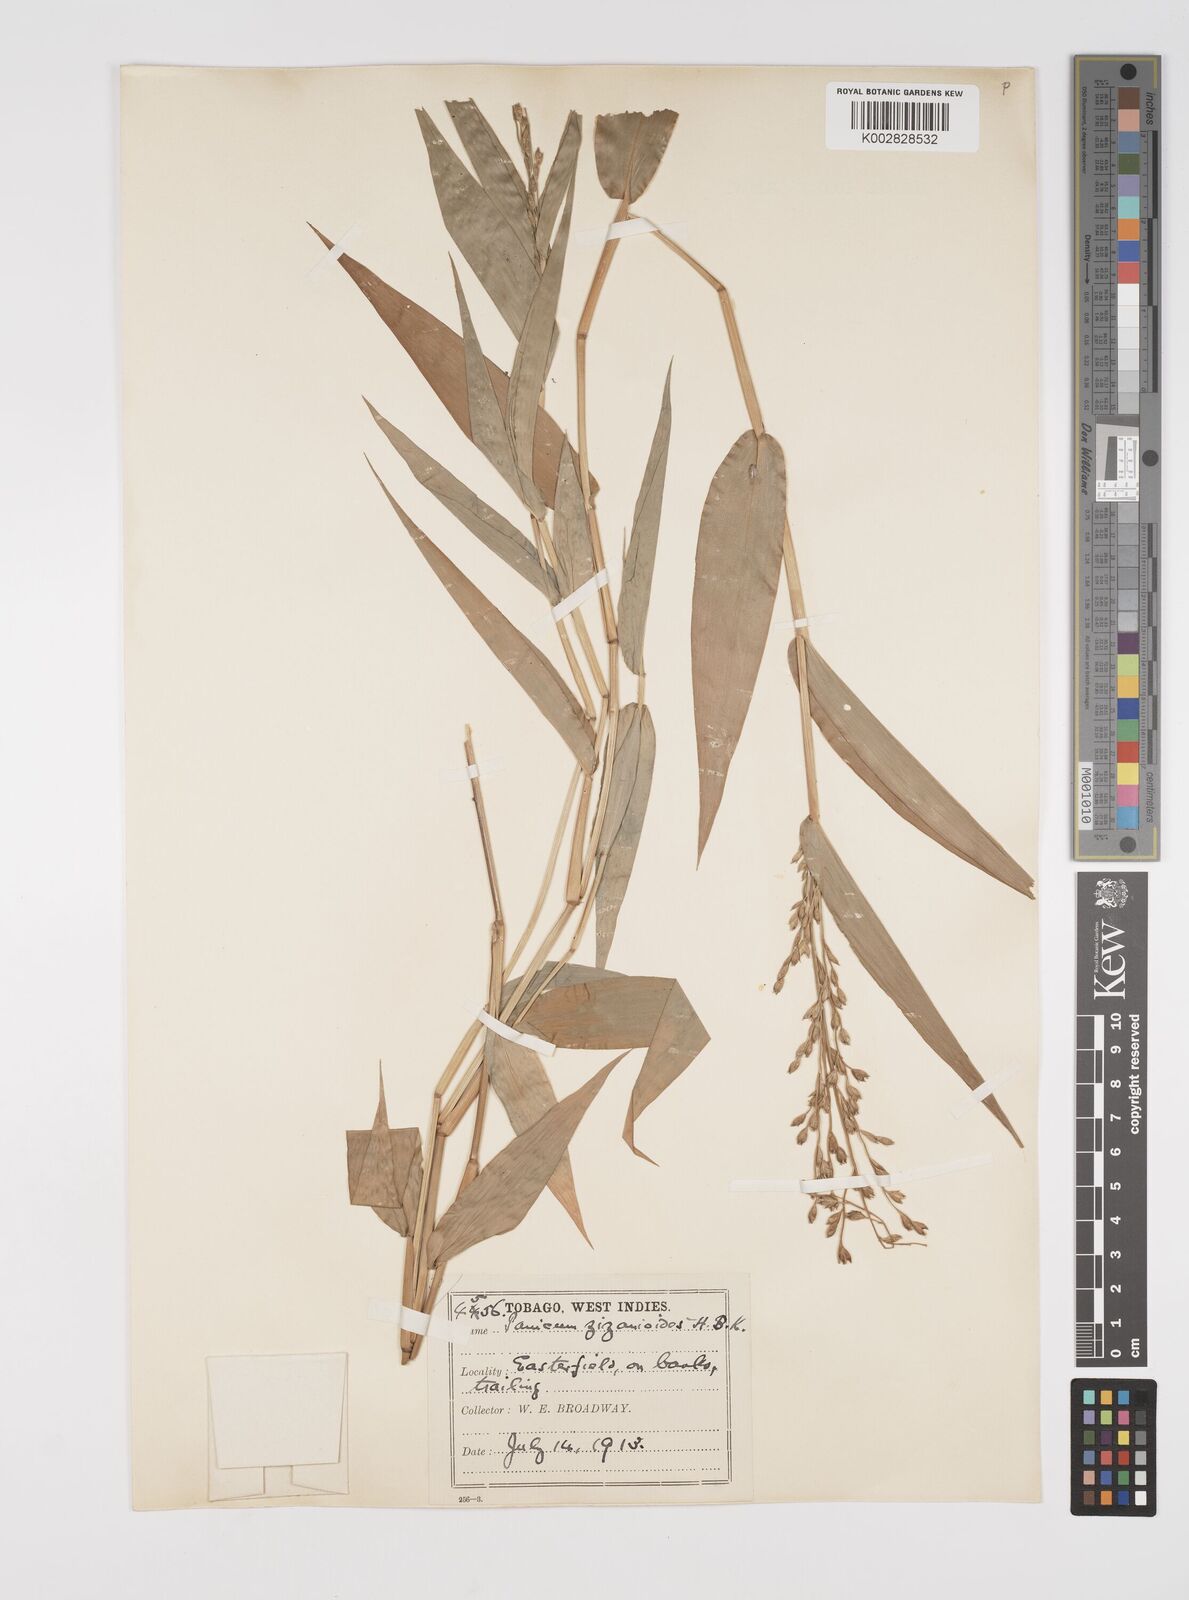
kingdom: Plantae
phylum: Tracheophyta
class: Liliopsida
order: Poales
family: Poaceae
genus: Acroceras
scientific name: Acroceras zizanioides
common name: Oat grass
